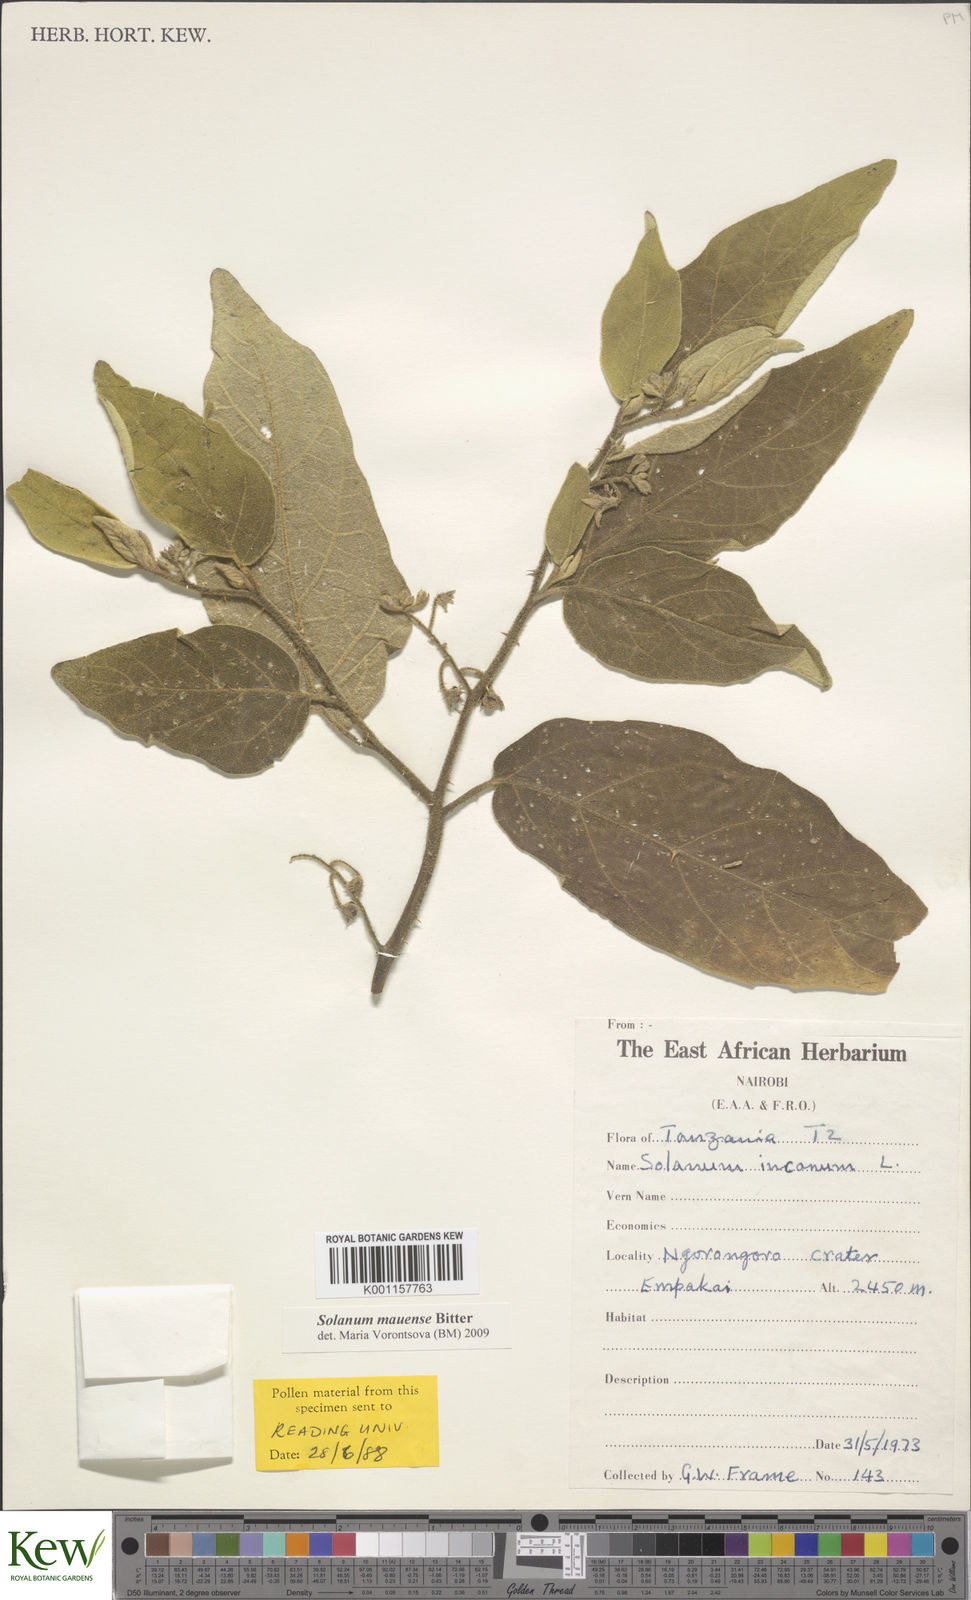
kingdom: Plantae
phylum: Tracheophyta
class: Magnoliopsida
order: Solanales
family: Solanaceae
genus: Solanum
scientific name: Solanum mauense
